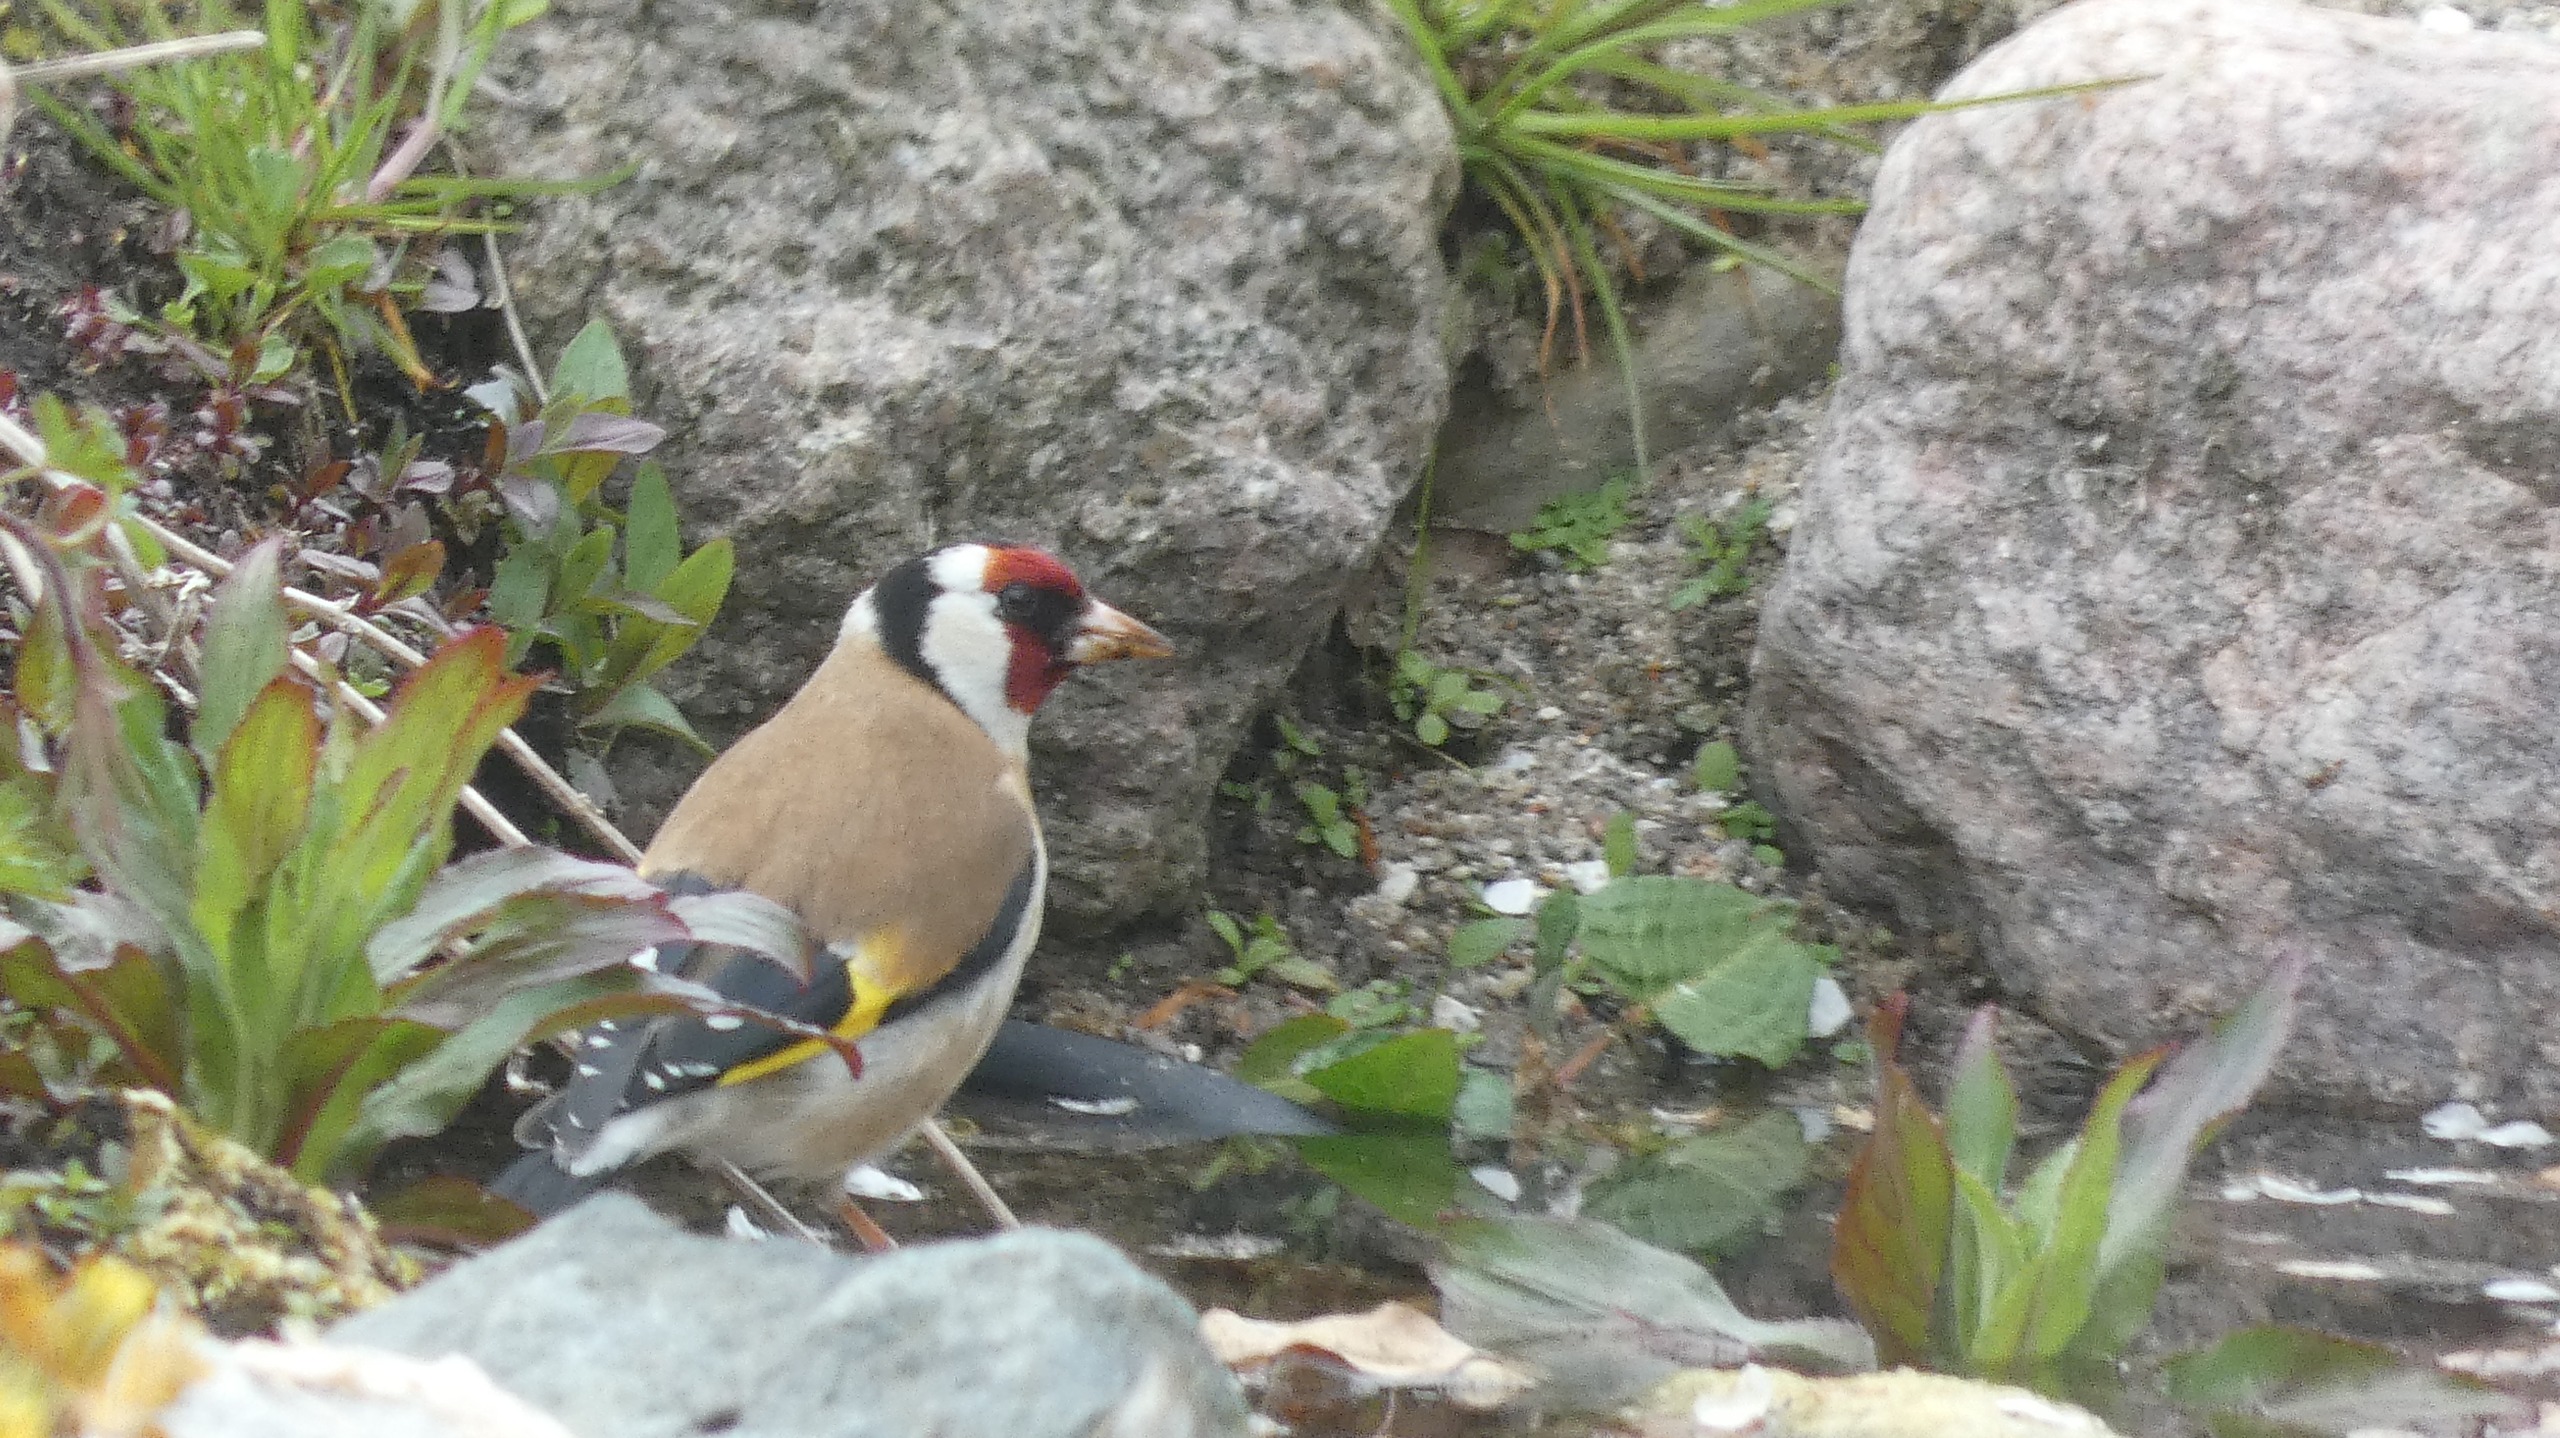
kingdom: Animalia
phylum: Chordata
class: Aves
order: Passeriformes
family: Fringillidae
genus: Carduelis
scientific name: Carduelis carduelis
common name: Stillits
